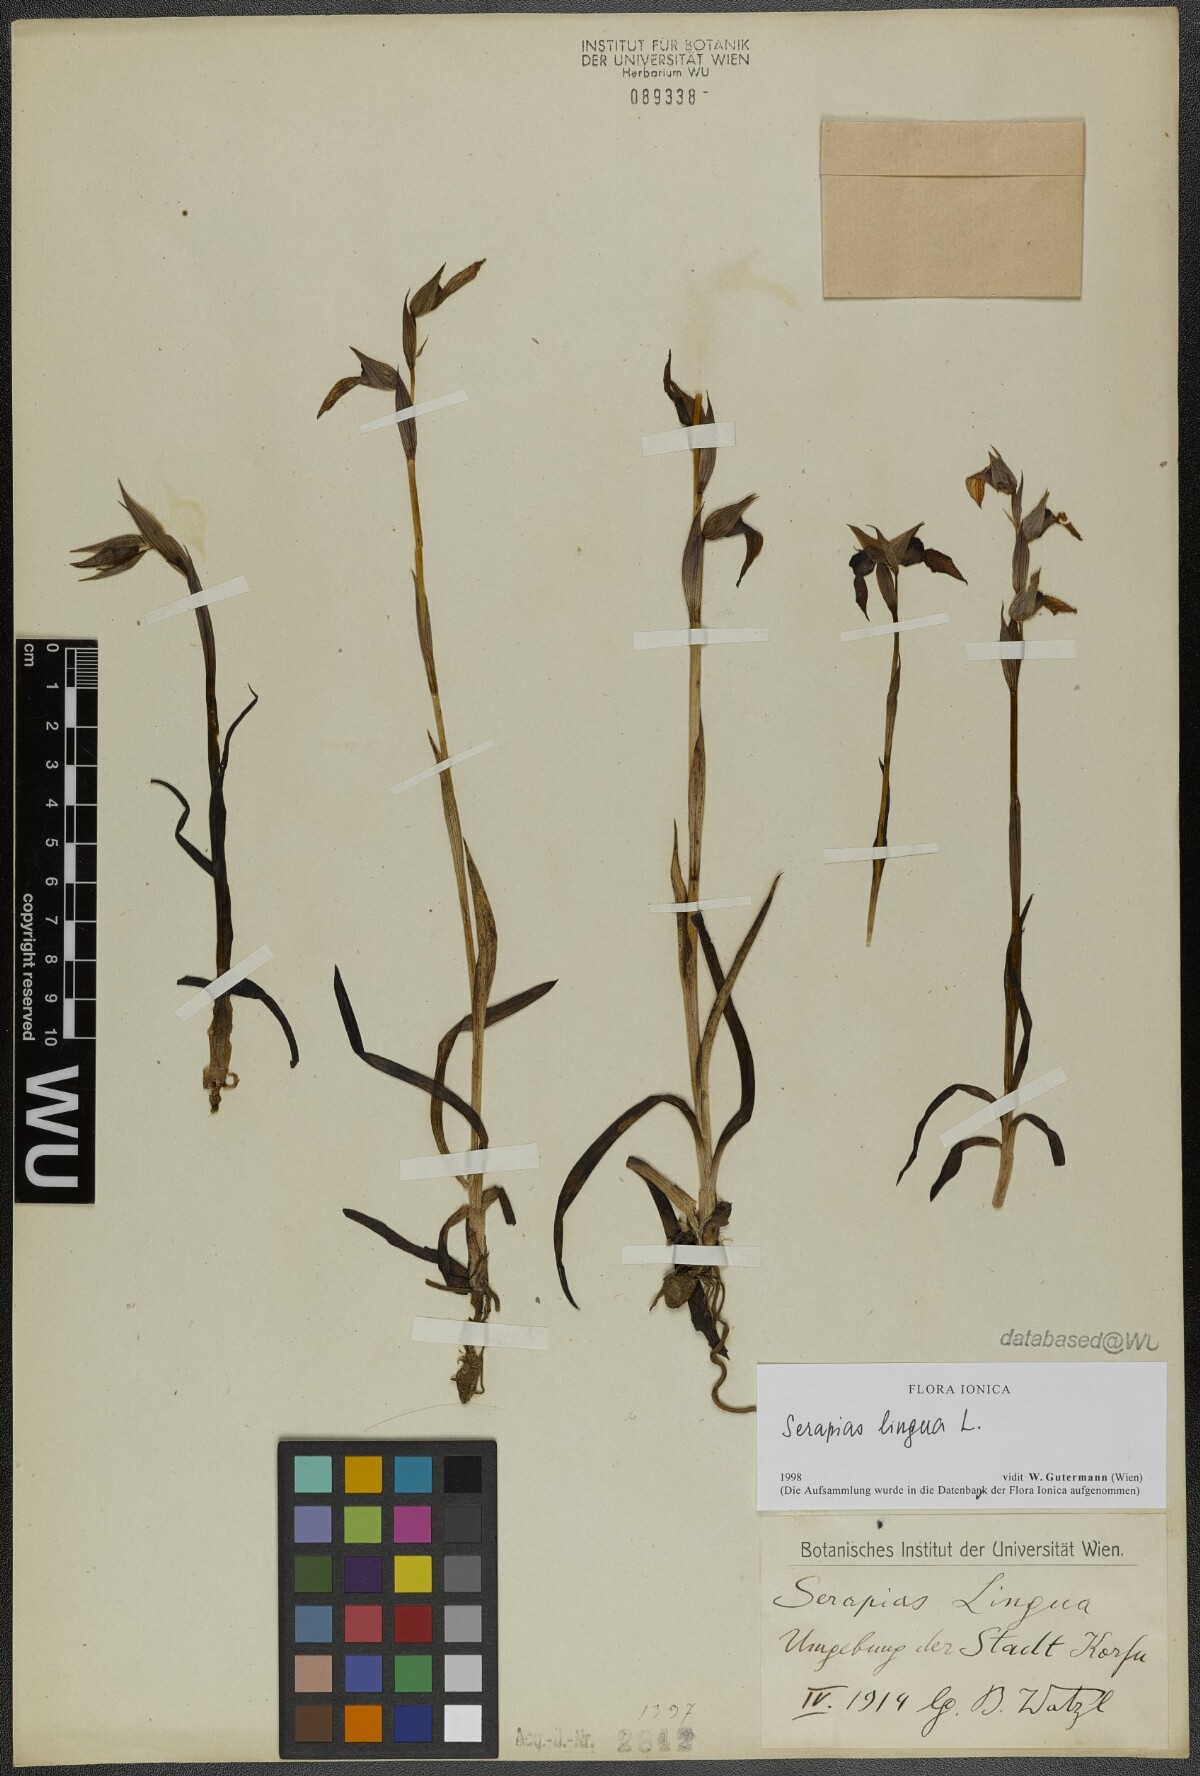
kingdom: Plantae
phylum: Tracheophyta
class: Liliopsida
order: Asparagales
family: Orchidaceae
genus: Serapias
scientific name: Serapias lingua
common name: Tongue-orchid
